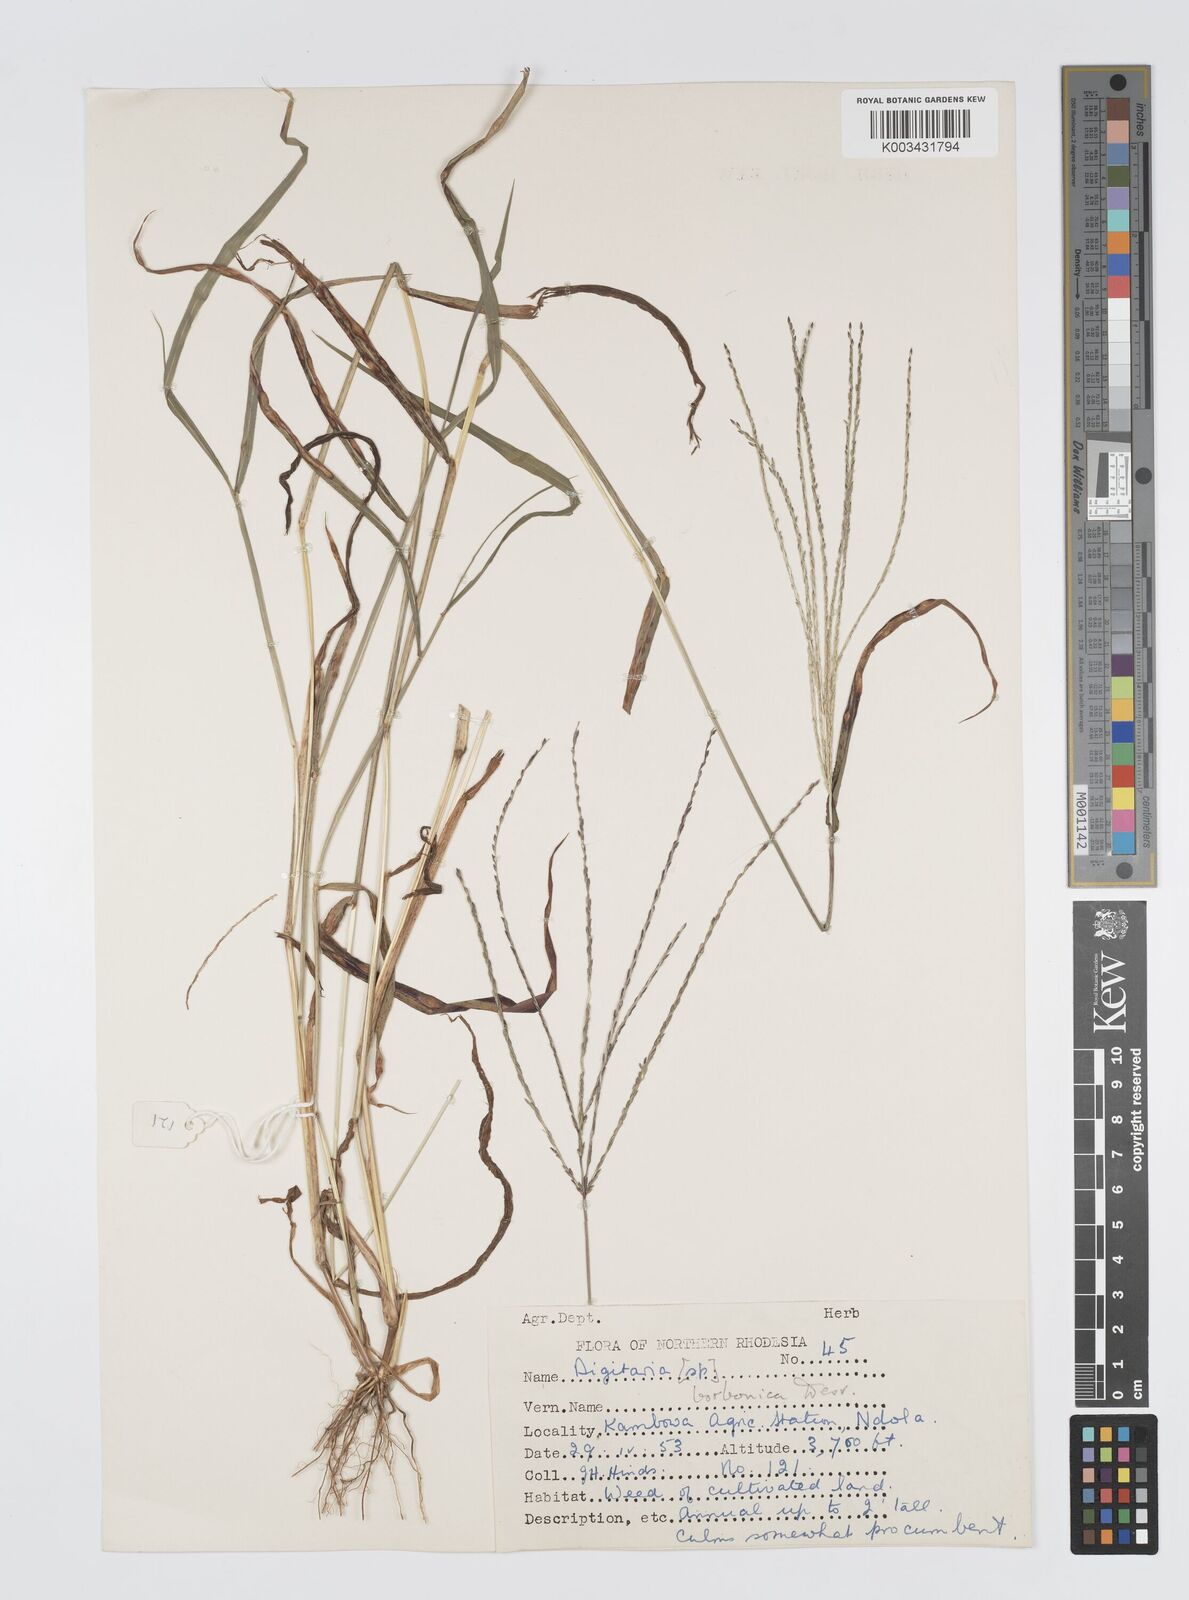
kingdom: Plantae
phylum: Tracheophyta
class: Liliopsida
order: Poales
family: Poaceae
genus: Digitaria
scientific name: Digitaria nuda
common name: Naked crabgrass
